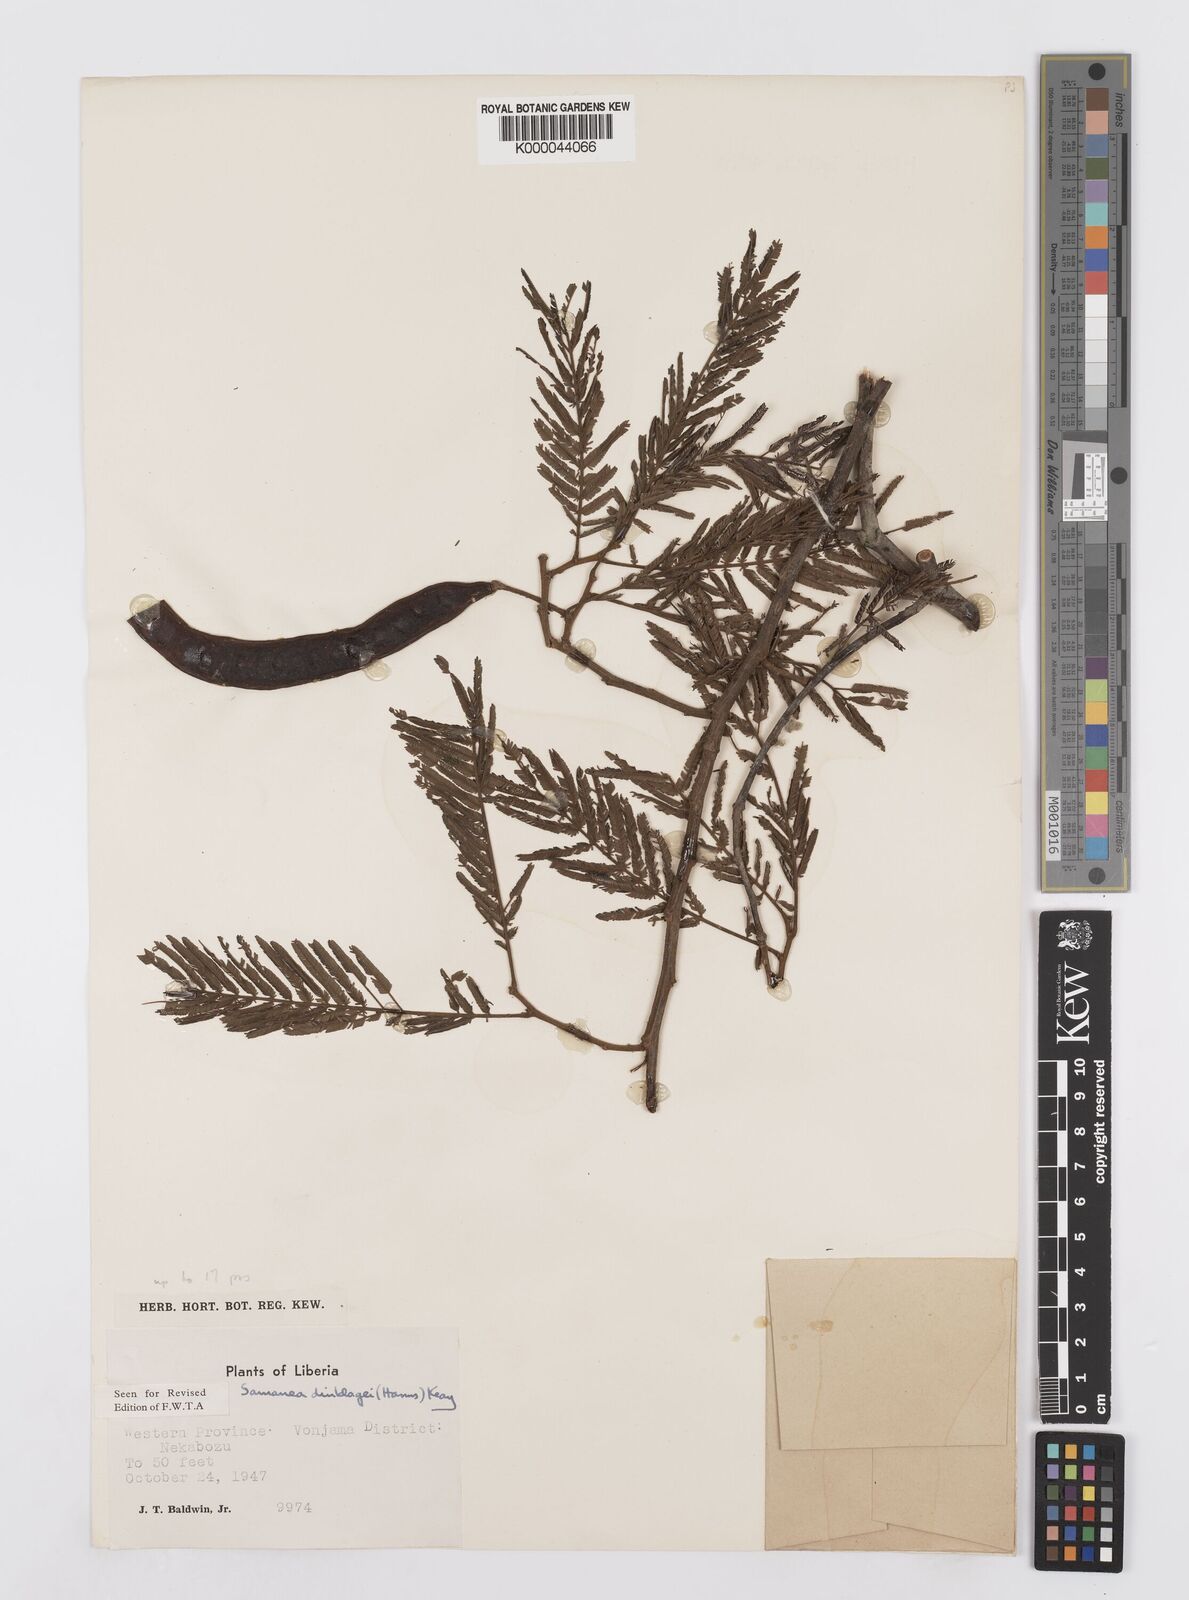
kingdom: Plantae
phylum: Tracheophyta
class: Magnoliopsida
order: Fabales
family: Fabaceae
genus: Albizia
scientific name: Albizia dinklagei
